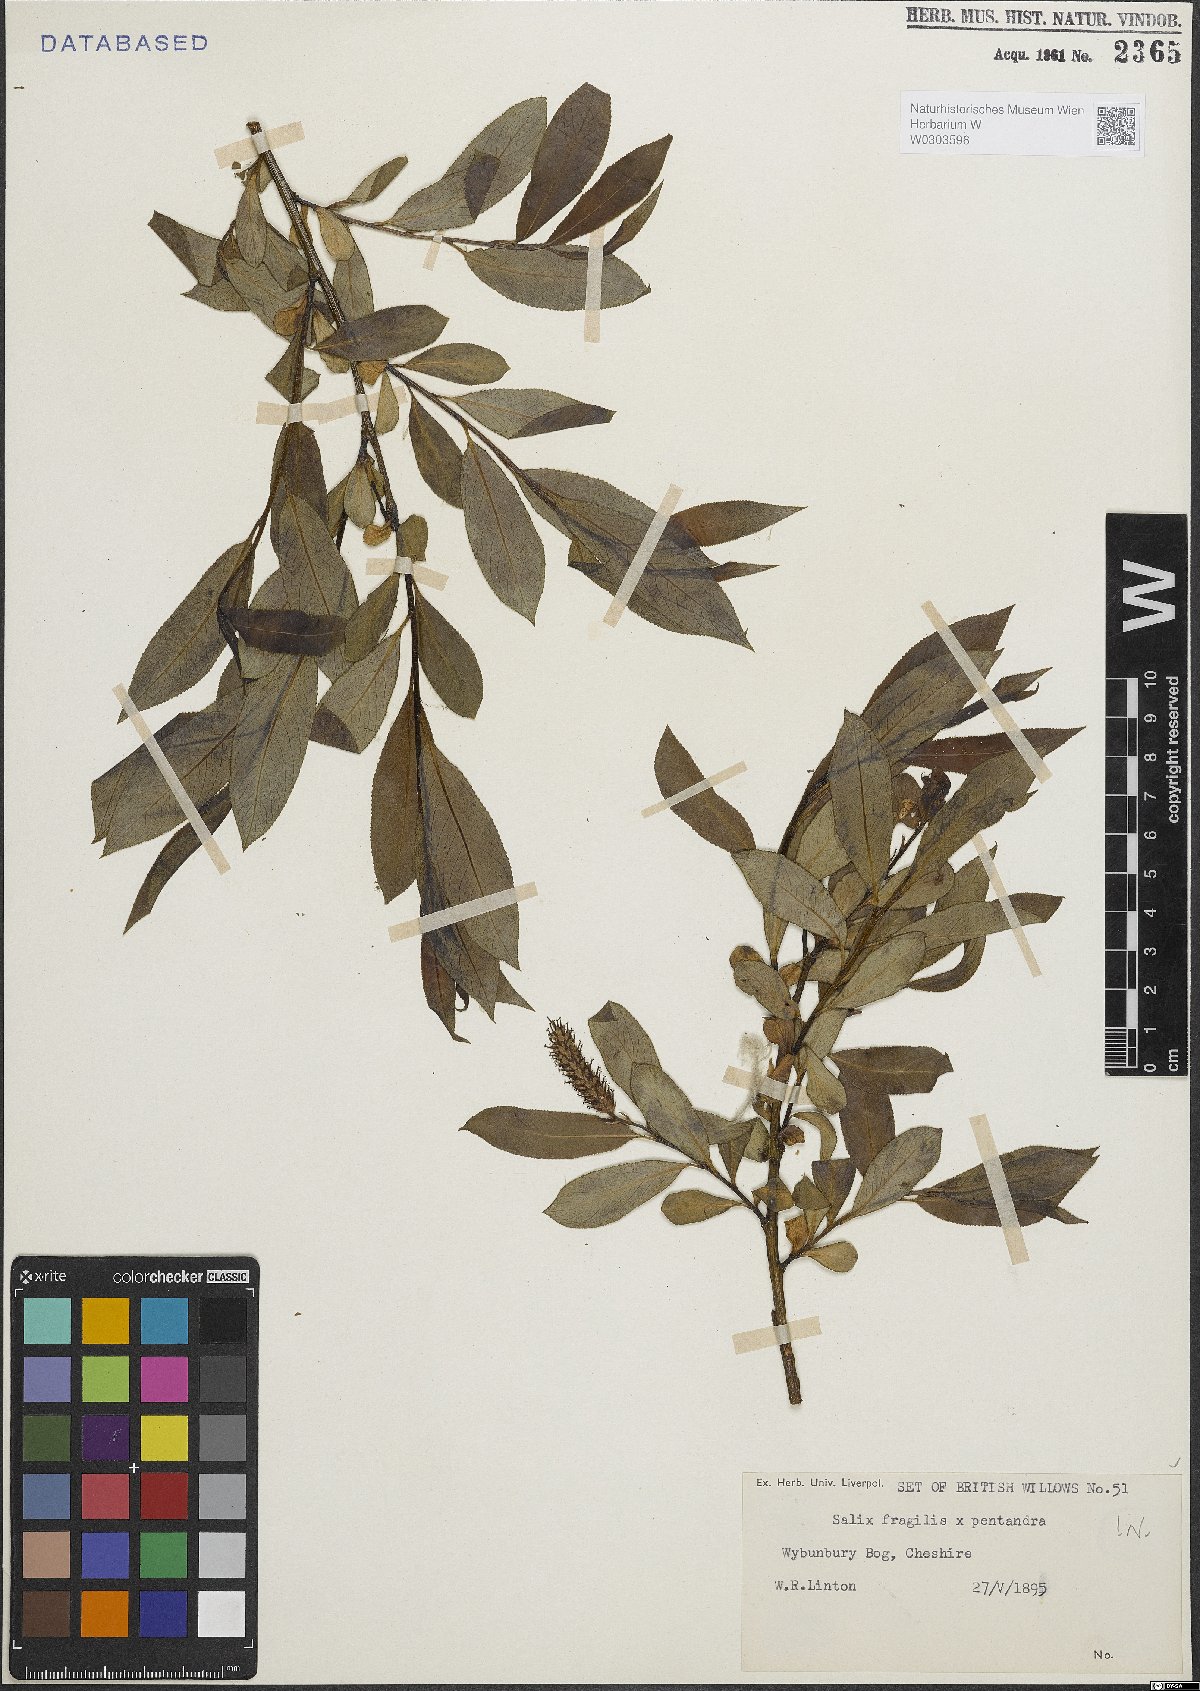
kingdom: Plantae
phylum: Tracheophyta
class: Magnoliopsida
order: Malpighiales
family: Salicaceae
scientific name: Salicaceae
